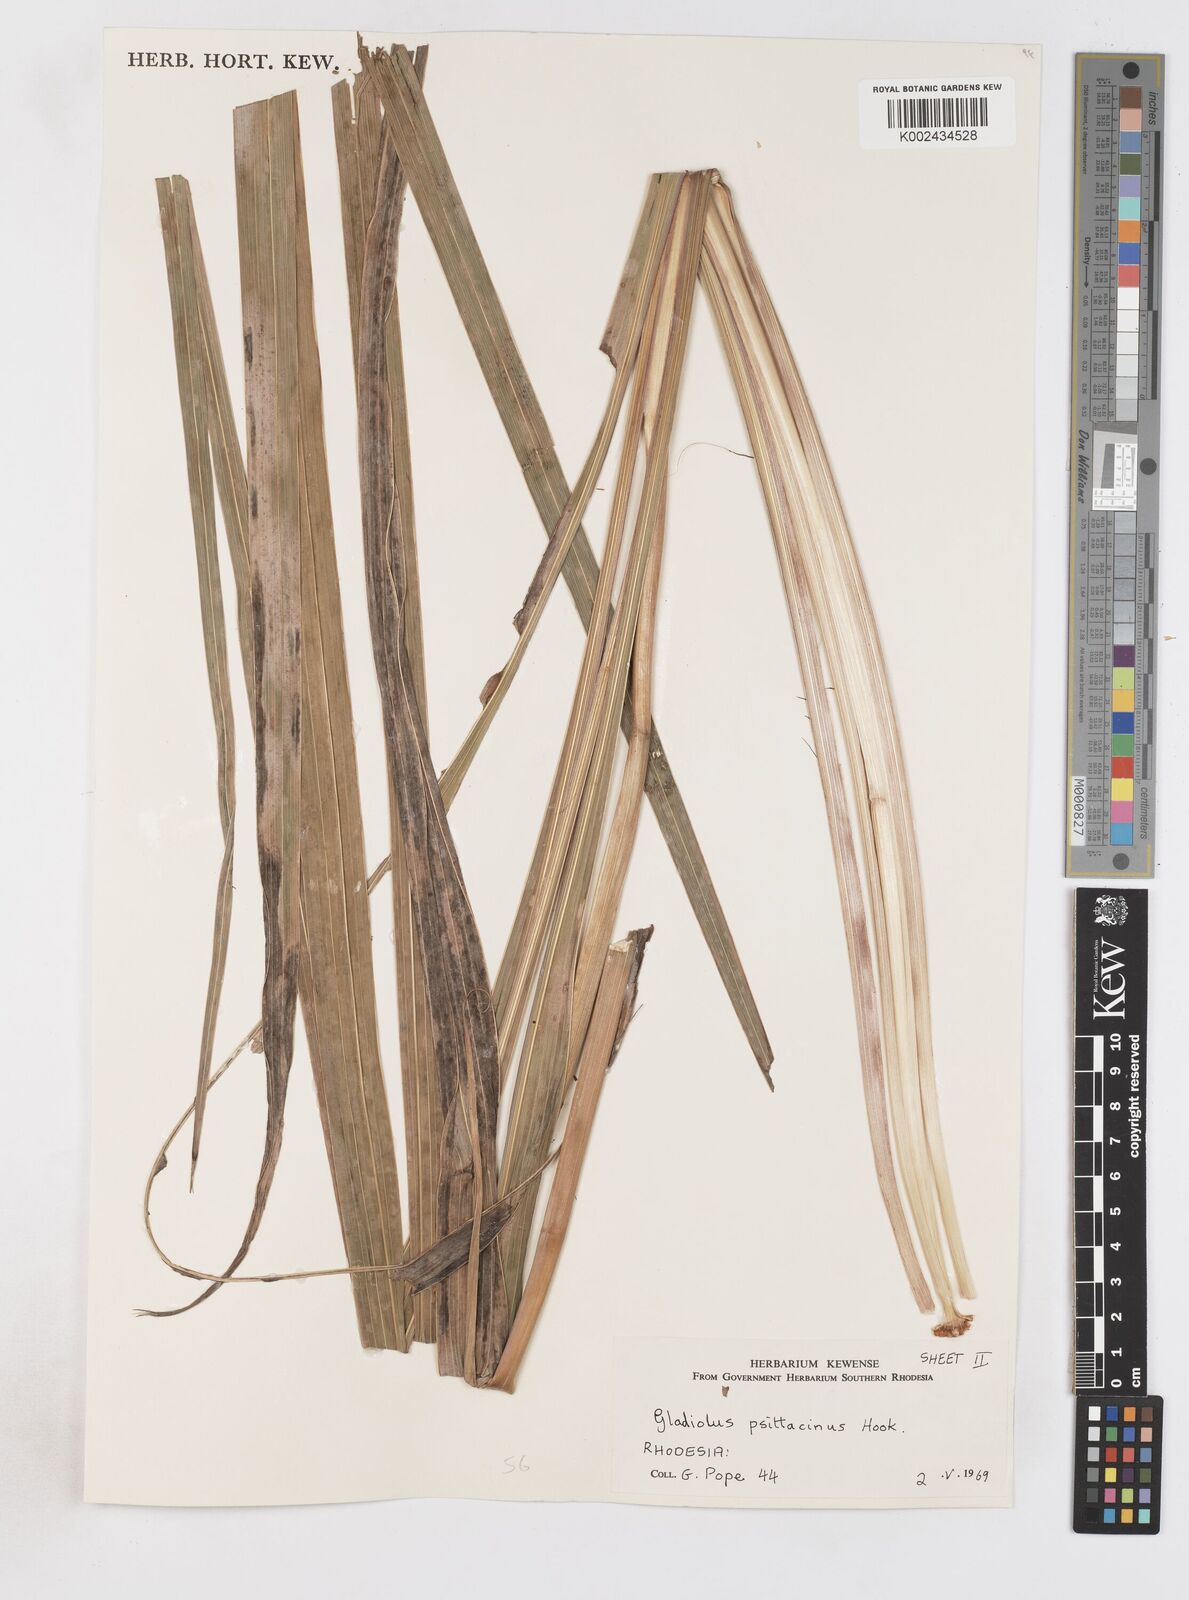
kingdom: Plantae
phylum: Tracheophyta
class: Liliopsida
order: Asparagales
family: Iridaceae
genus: Gladiolus
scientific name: Gladiolus dalenii
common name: Cornflag
